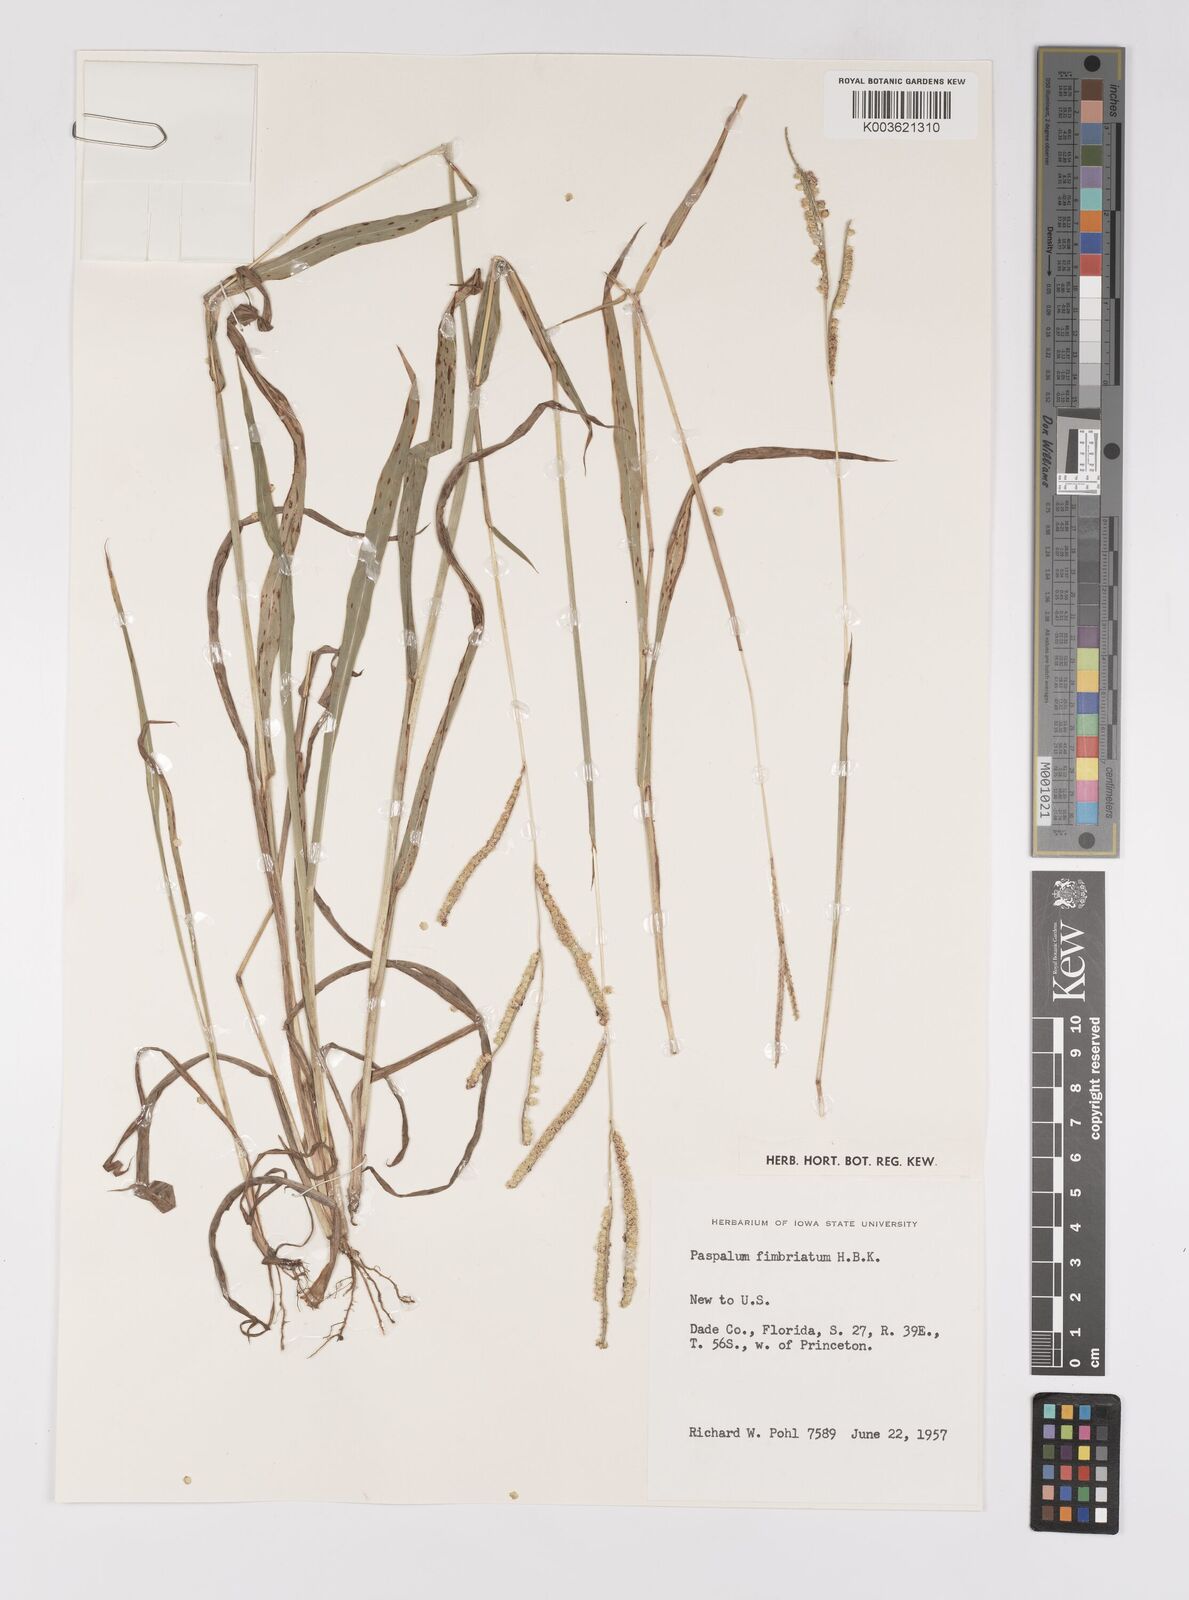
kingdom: Plantae
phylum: Tracheophyta
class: Liliopsida
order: Poales
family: Poaceae
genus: Paspalum
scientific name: Paspalum fimbriatum
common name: Panama crowngrass
